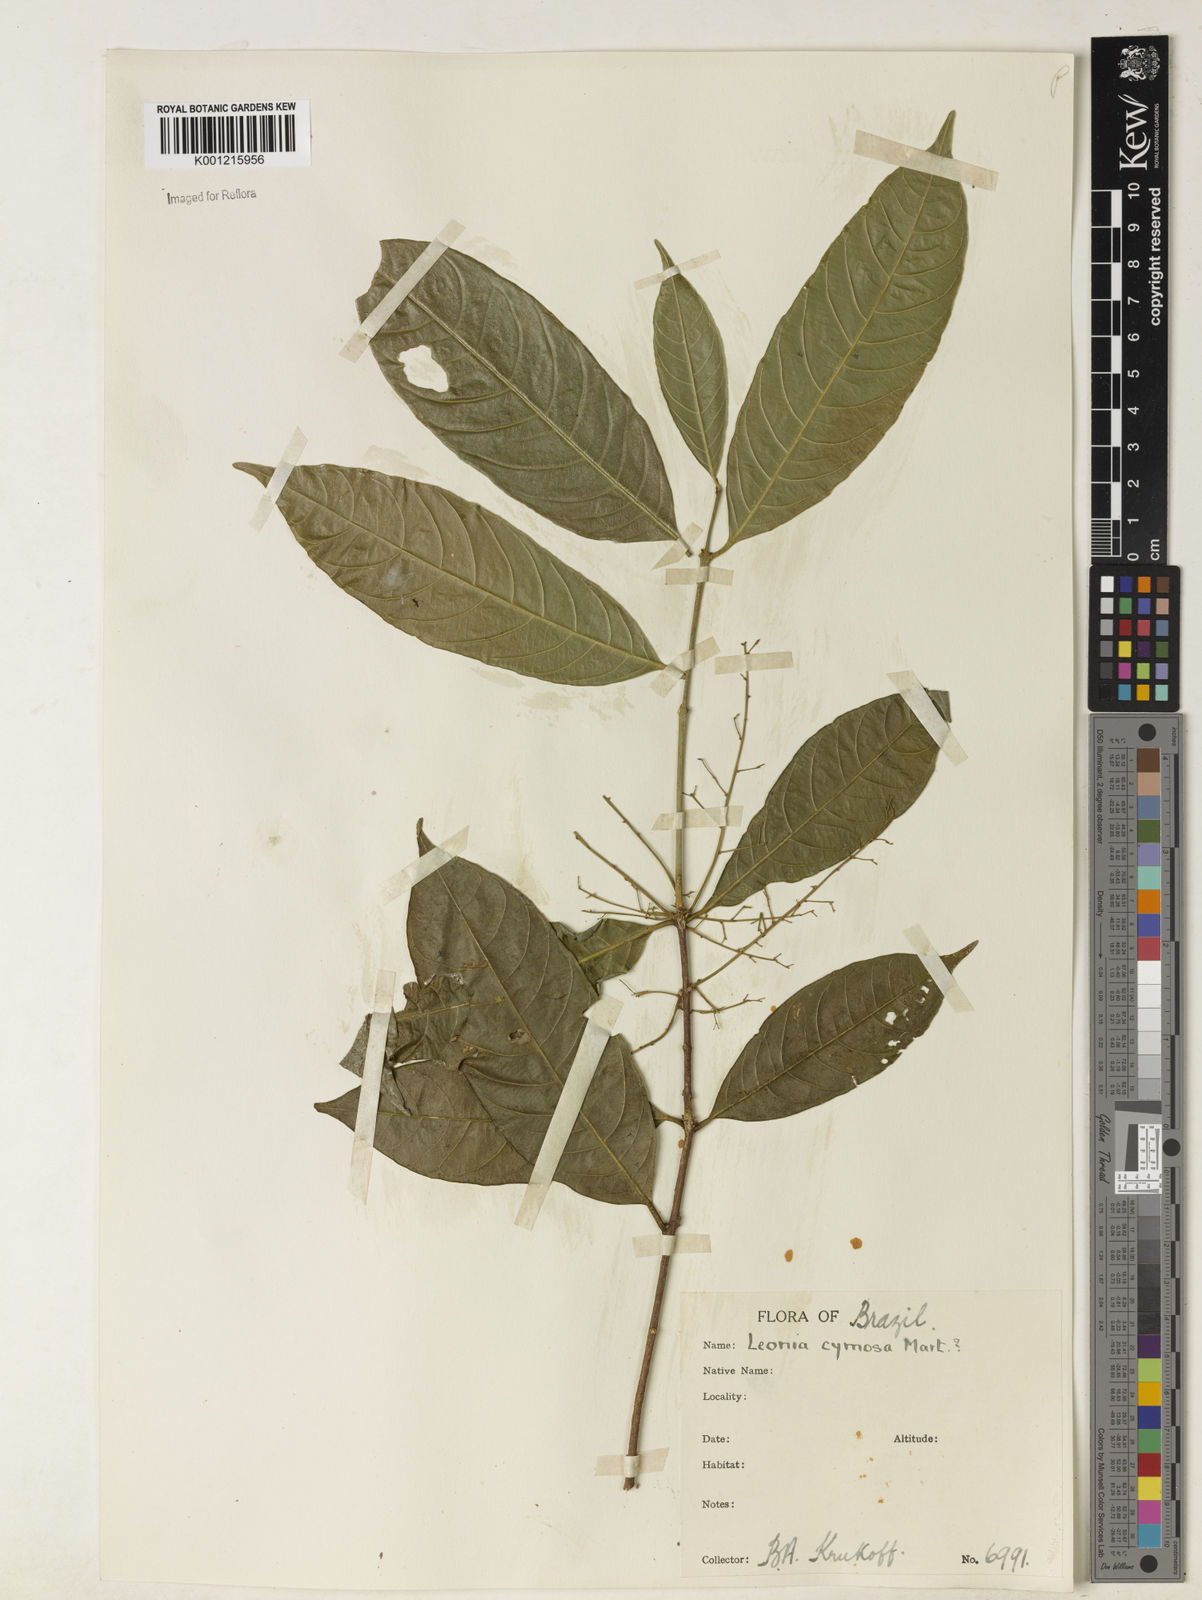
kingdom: Plantae
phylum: Tracheophyta
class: Magnoliopsida
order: Malpighiales
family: Violaceae
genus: Leonia
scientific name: Leonia cymosa
